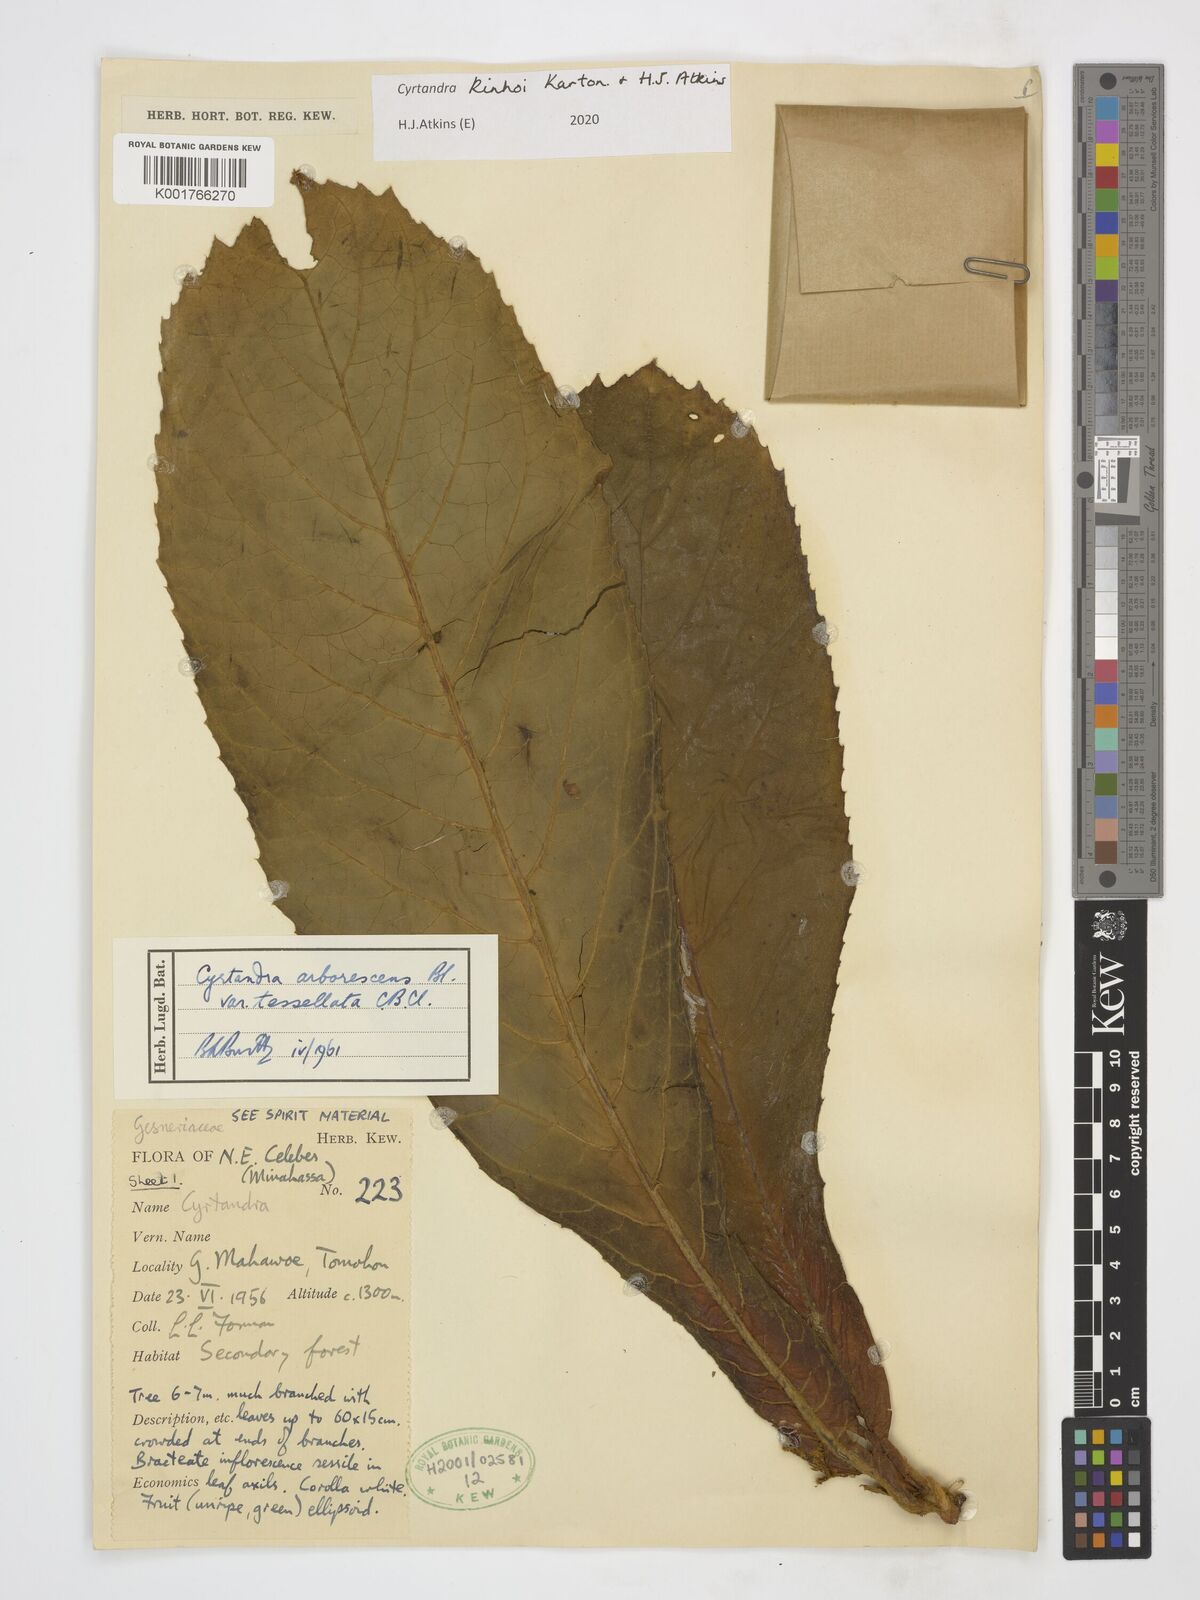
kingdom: Plantae
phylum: Tracheophyta
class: Magnoliopsida
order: Lamiales
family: Gesneriaceae
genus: Cyrtandra
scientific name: Cyrtandra kinhoi
